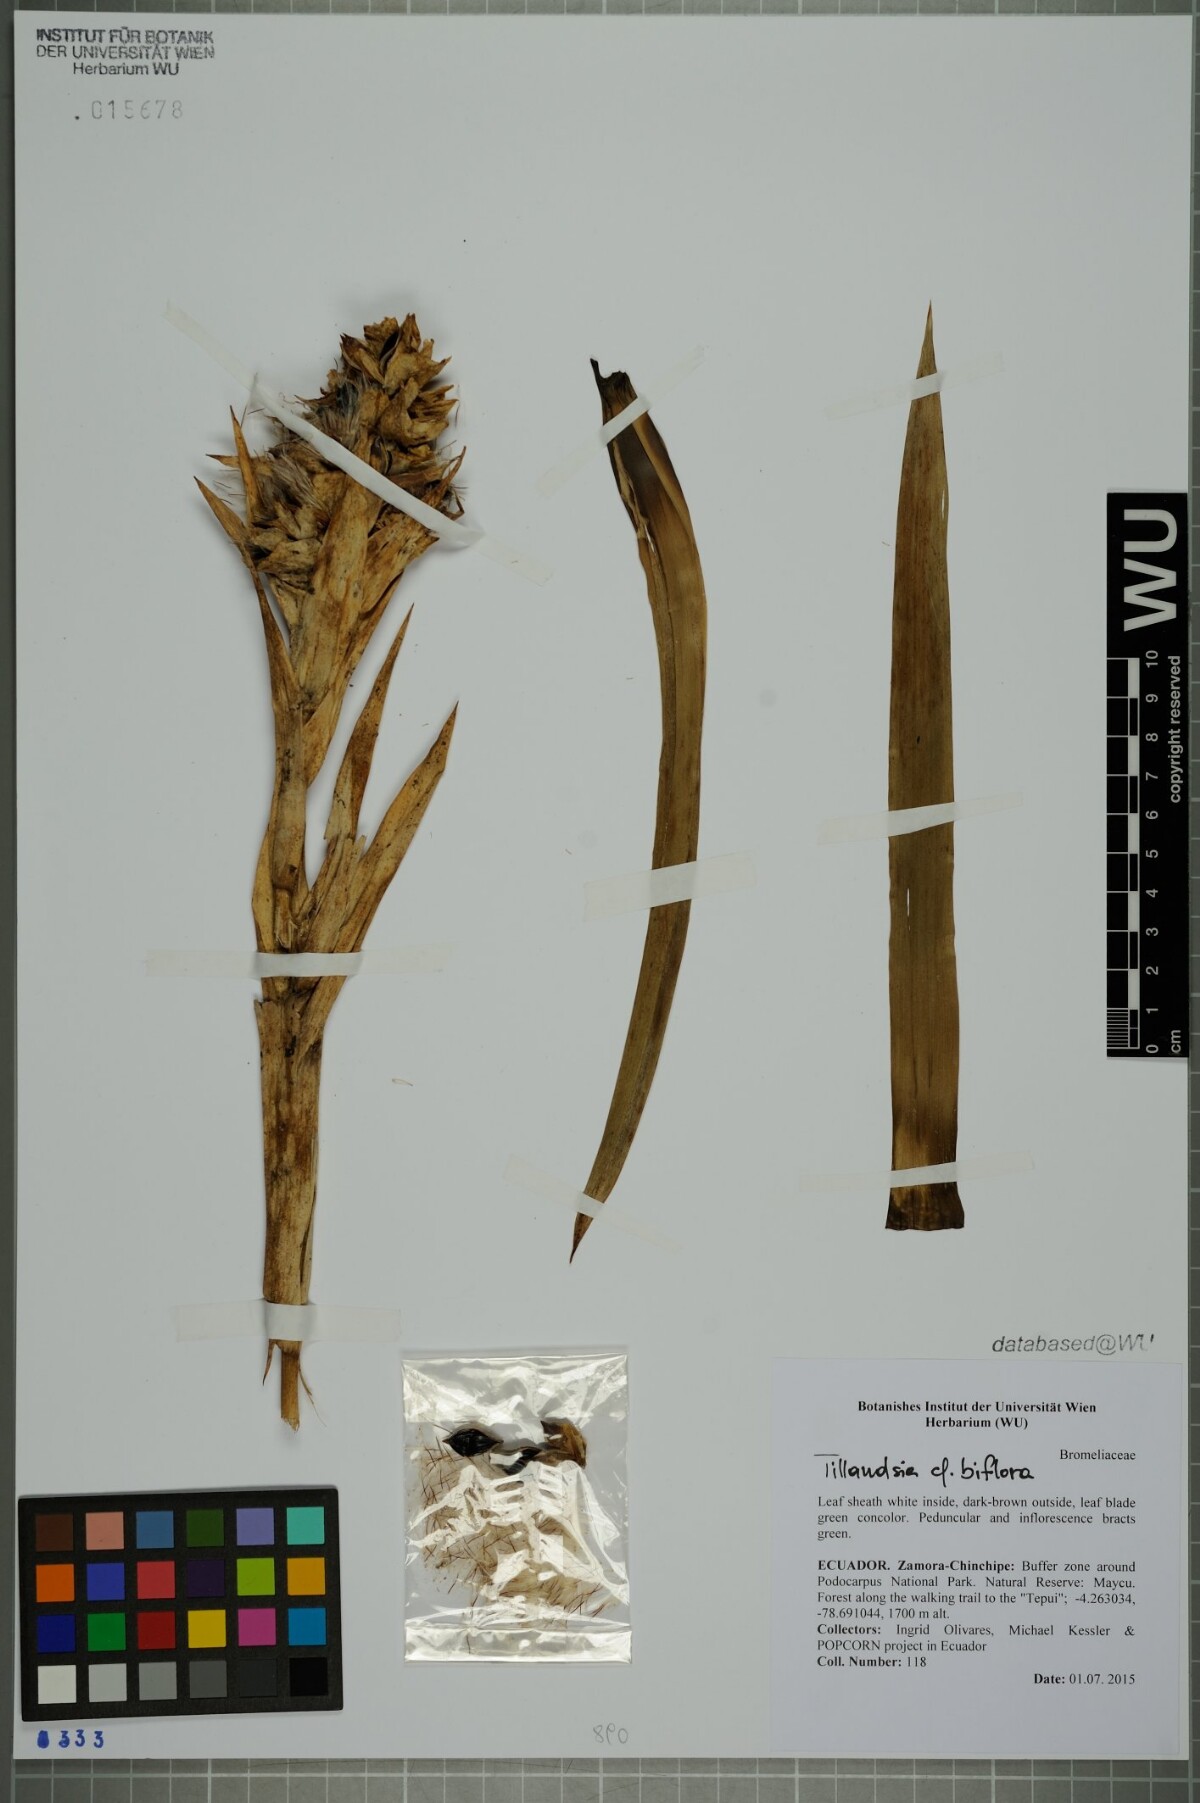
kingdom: Plantae
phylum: Tracheophyta
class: Liliopsida
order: Poales
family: Bromeliaceae
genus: Tillandsia
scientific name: Tillandsia biflora
